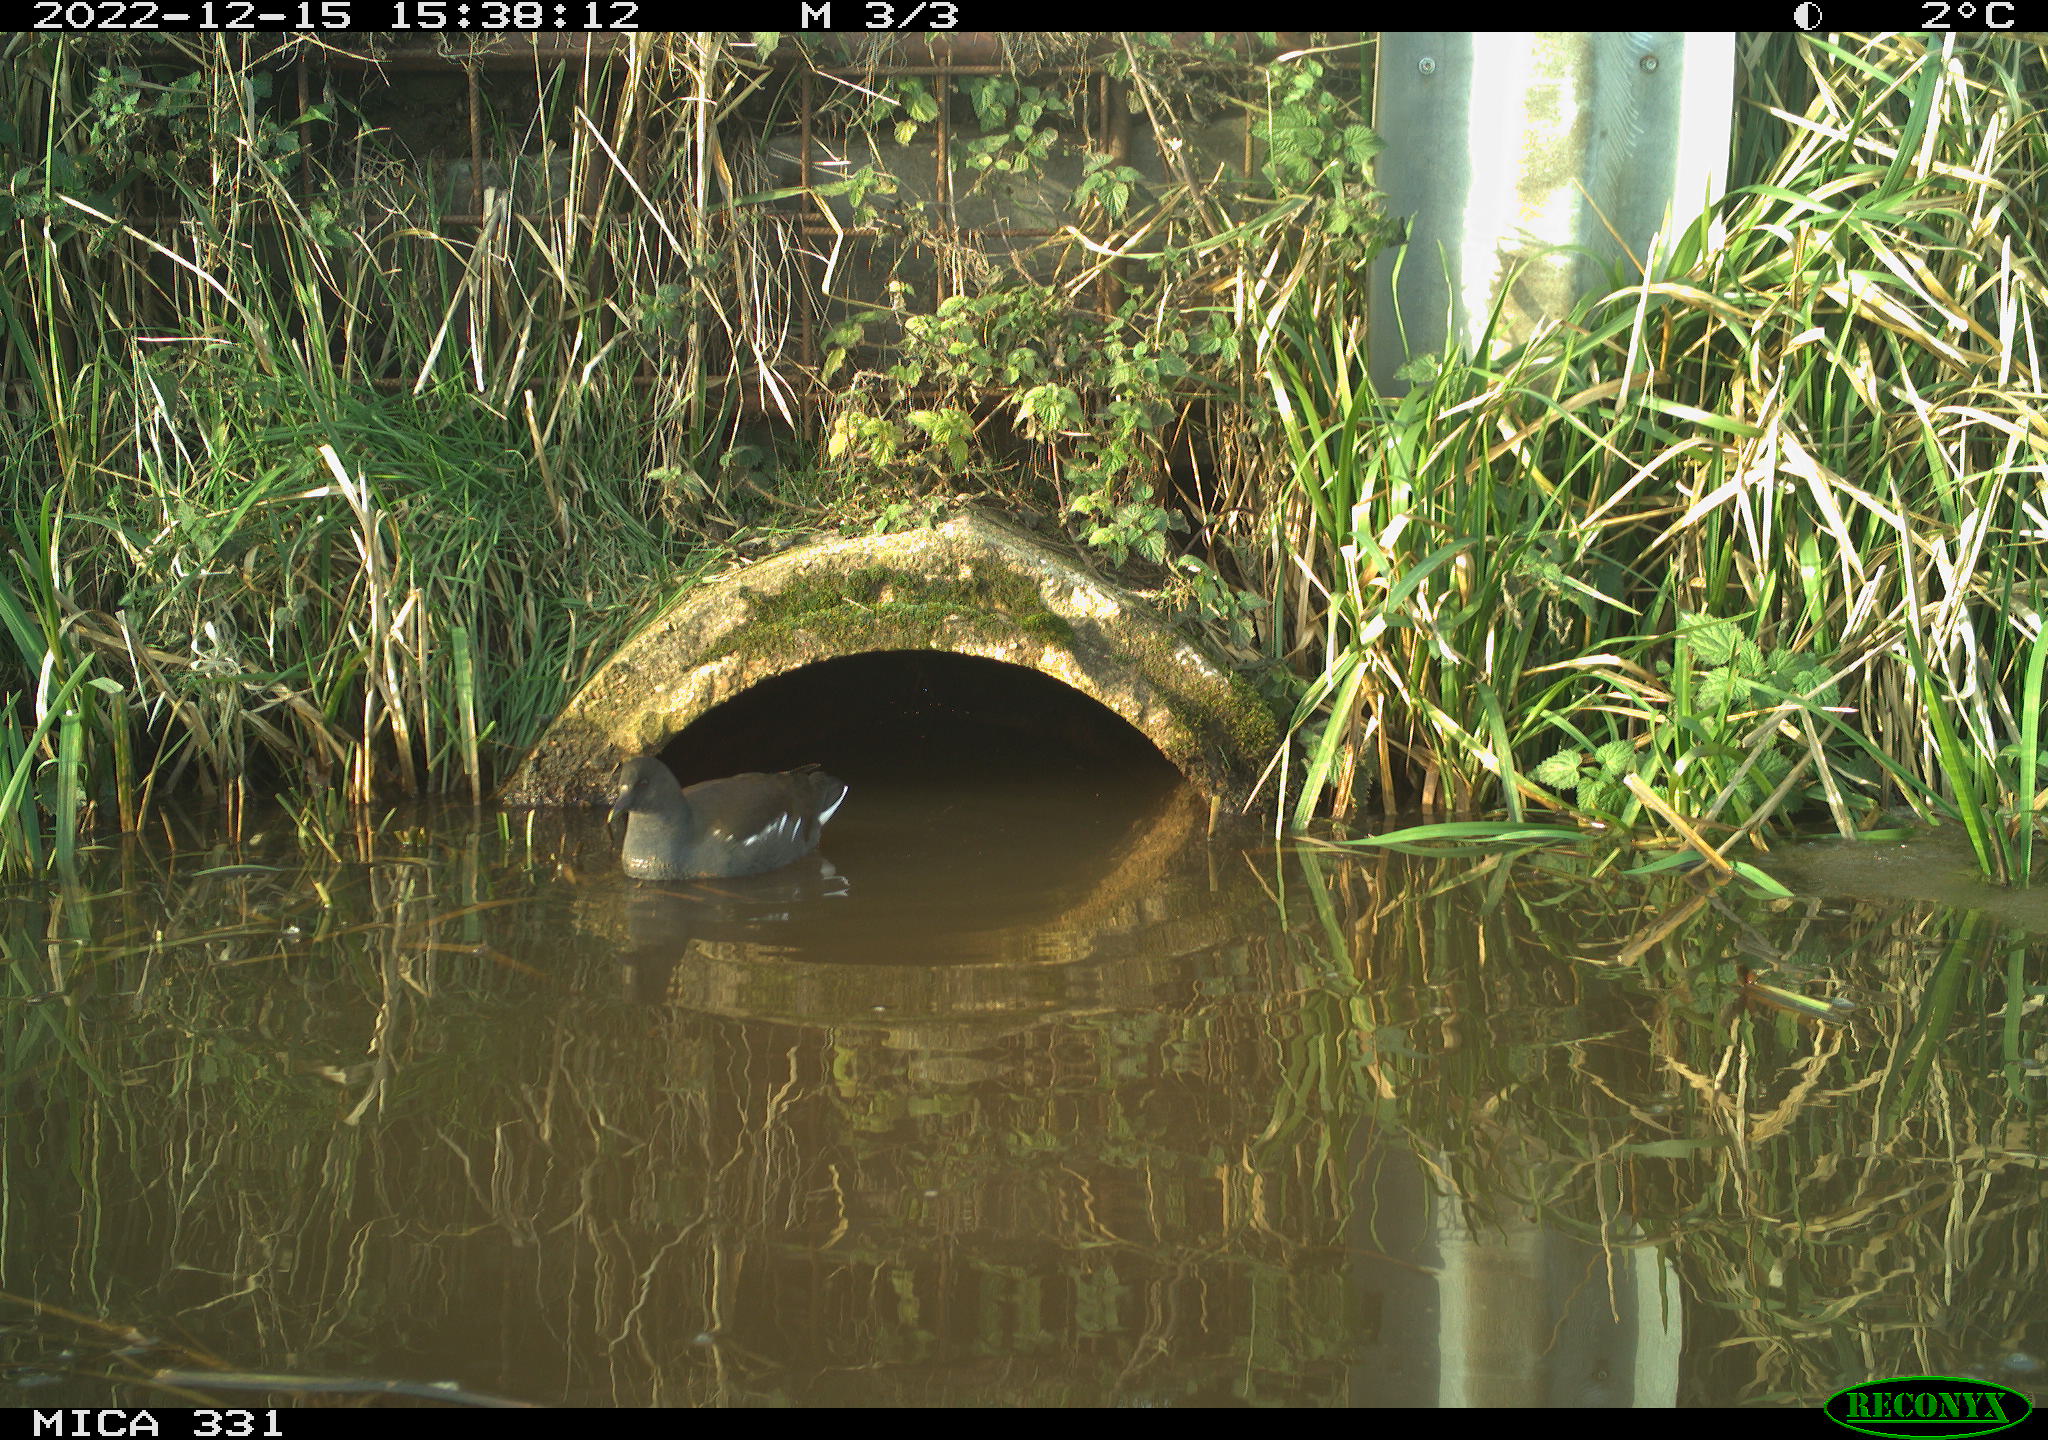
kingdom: Animalia
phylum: Chordata
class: Aves
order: Gruiformes
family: Rallidae
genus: Gallinula
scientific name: Gallinula chloropus
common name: Common moorhen
